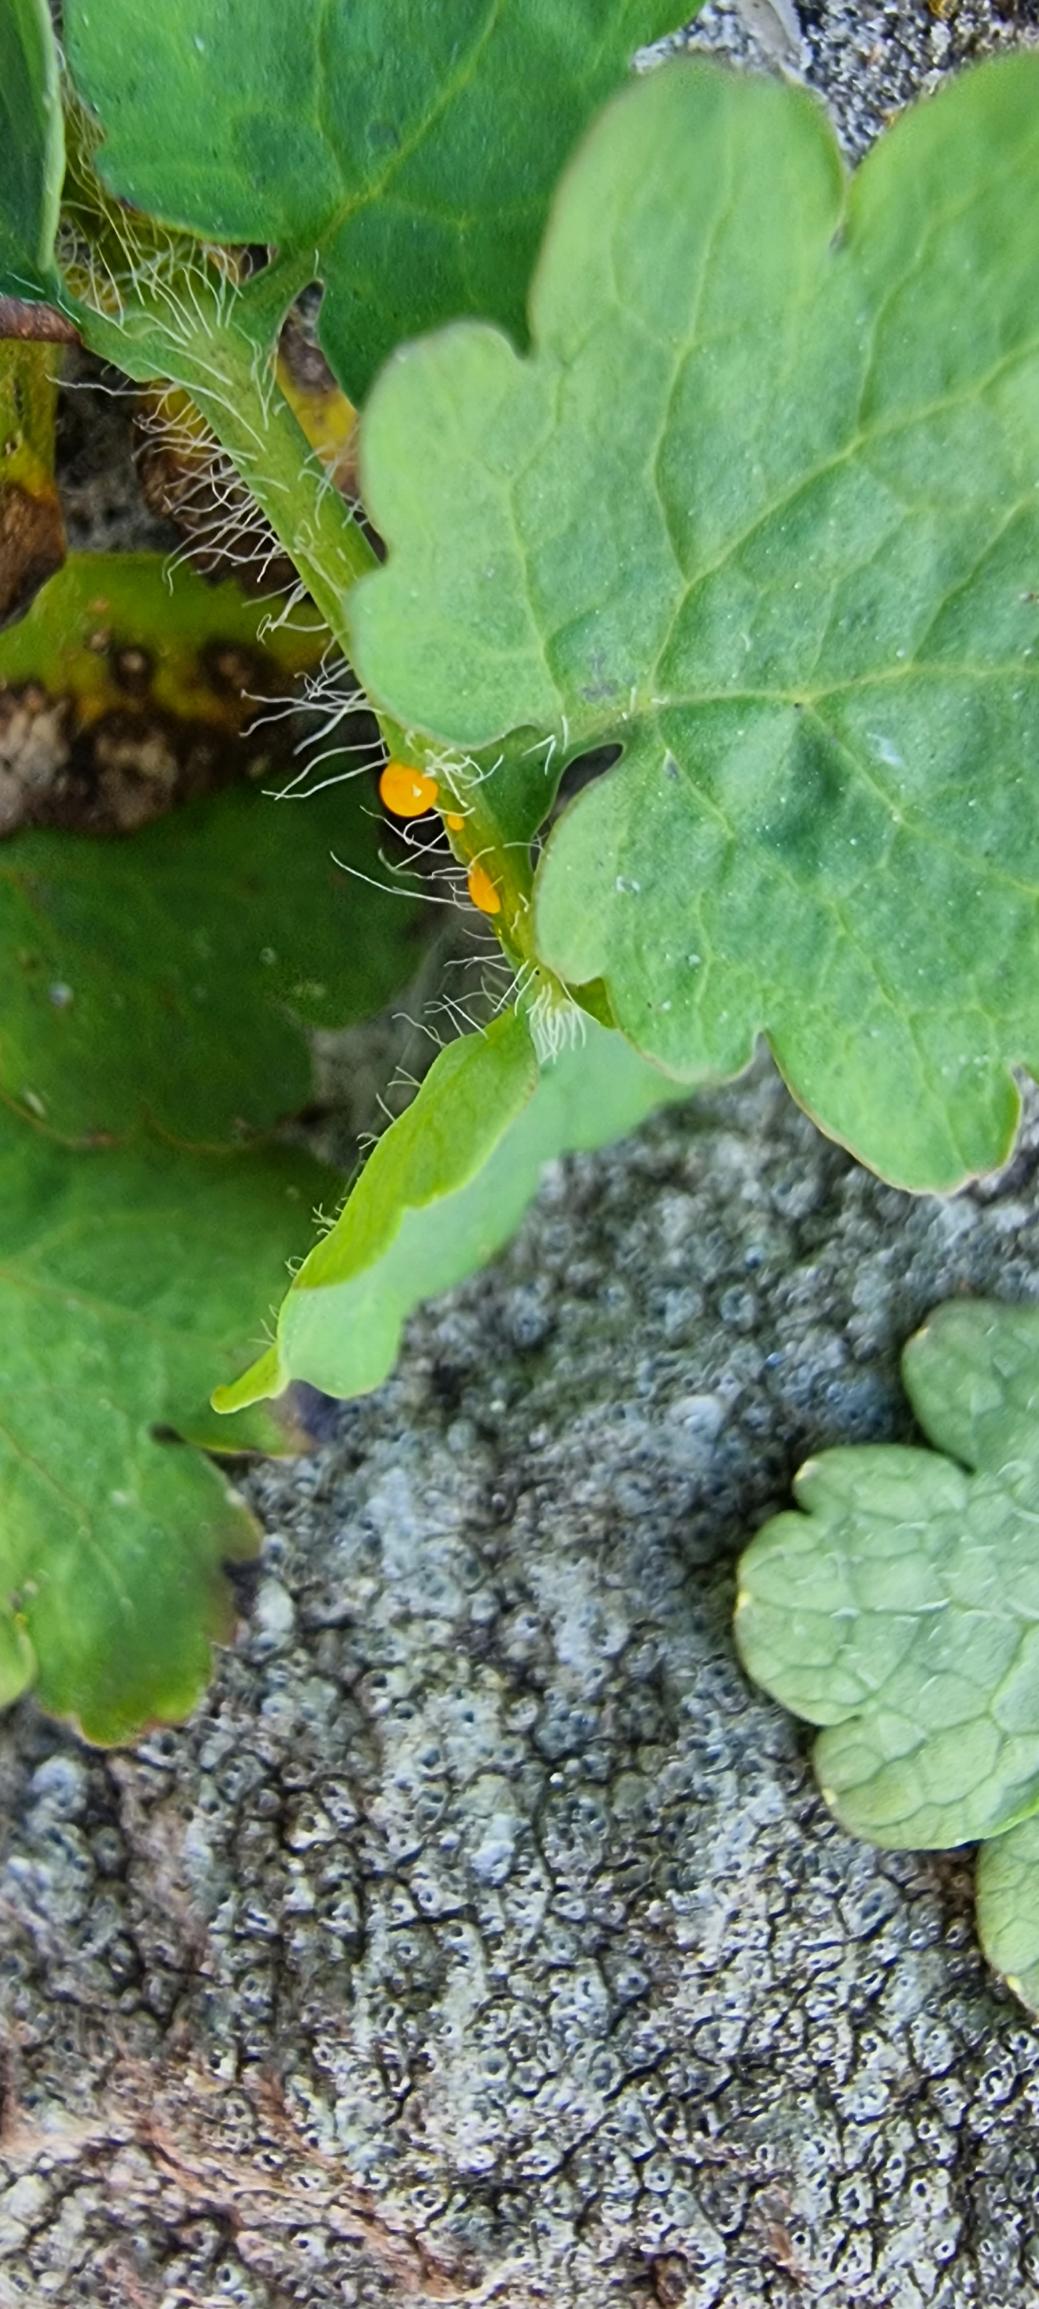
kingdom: Plantae
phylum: Tracheophyta
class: Magnoliopsida
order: Ranunculales
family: Papaveraceae
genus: Chelidonium
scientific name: Chelidonium majus
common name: Svaleurt
